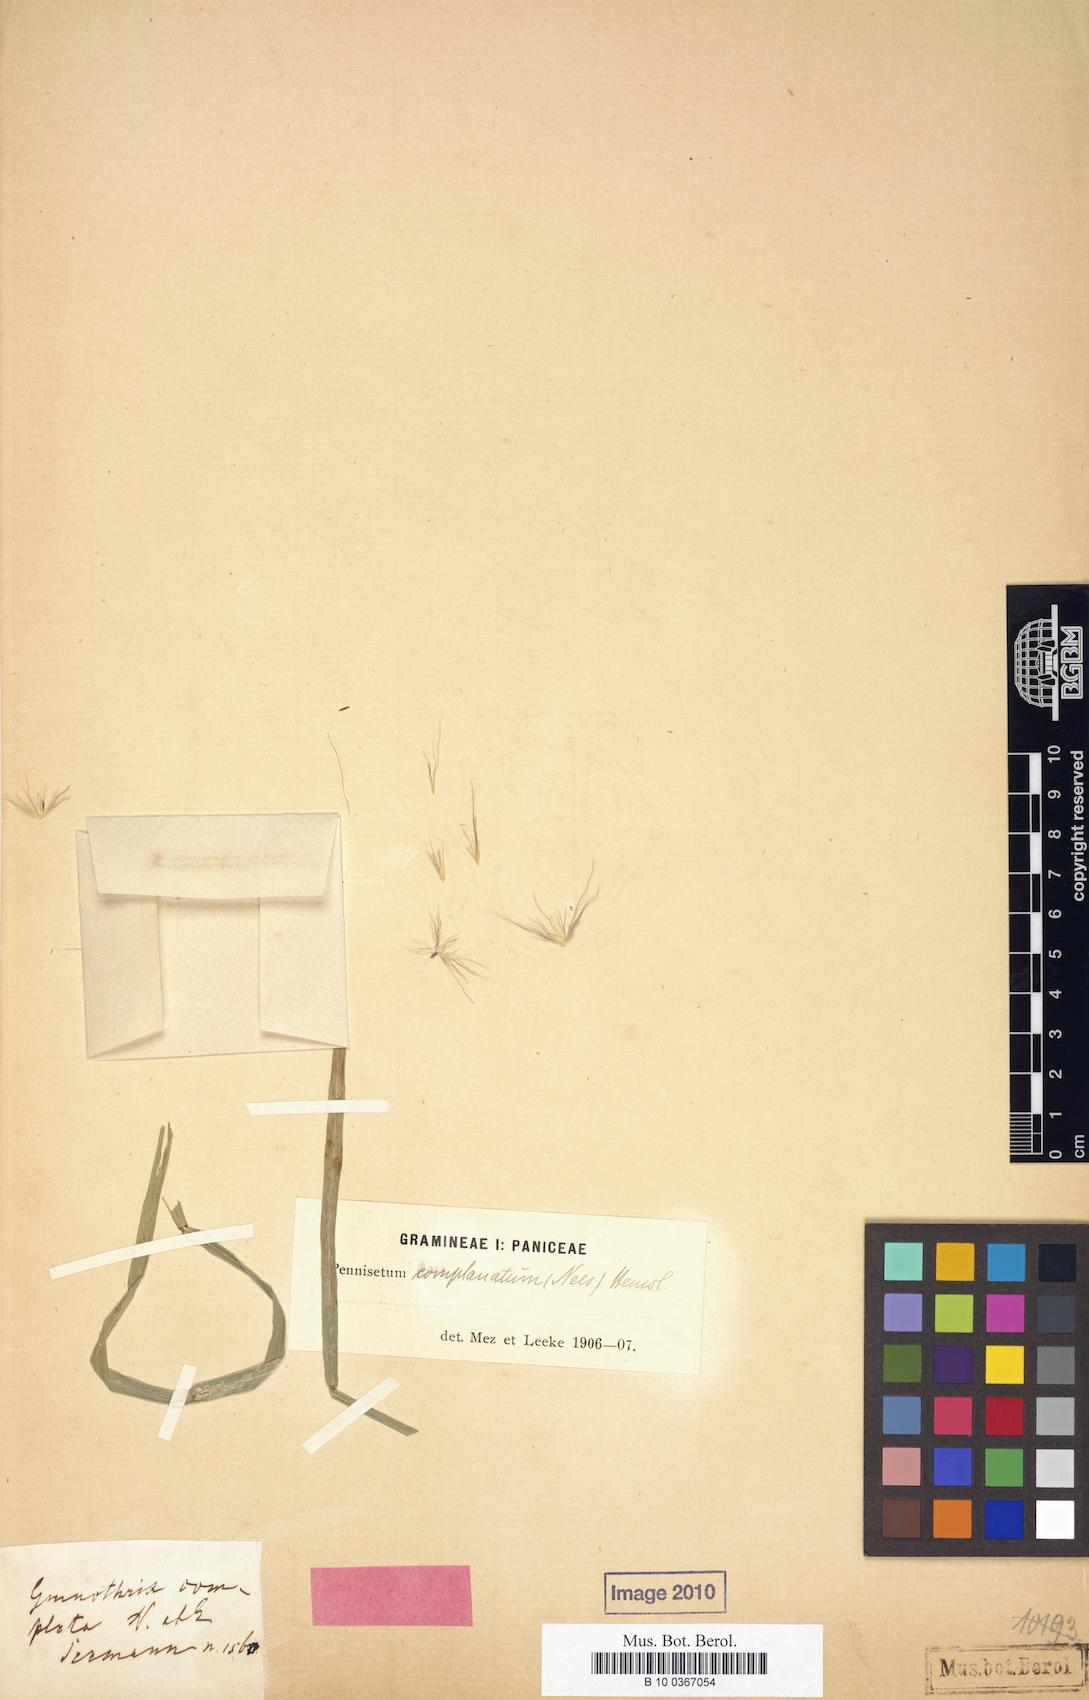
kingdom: Plantae
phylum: Tracheophyta
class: Liliopsida
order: Poales
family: Poaceae
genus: Cenchrus
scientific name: Cenchrus complanatus
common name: Nicaraguan fountaingrass
